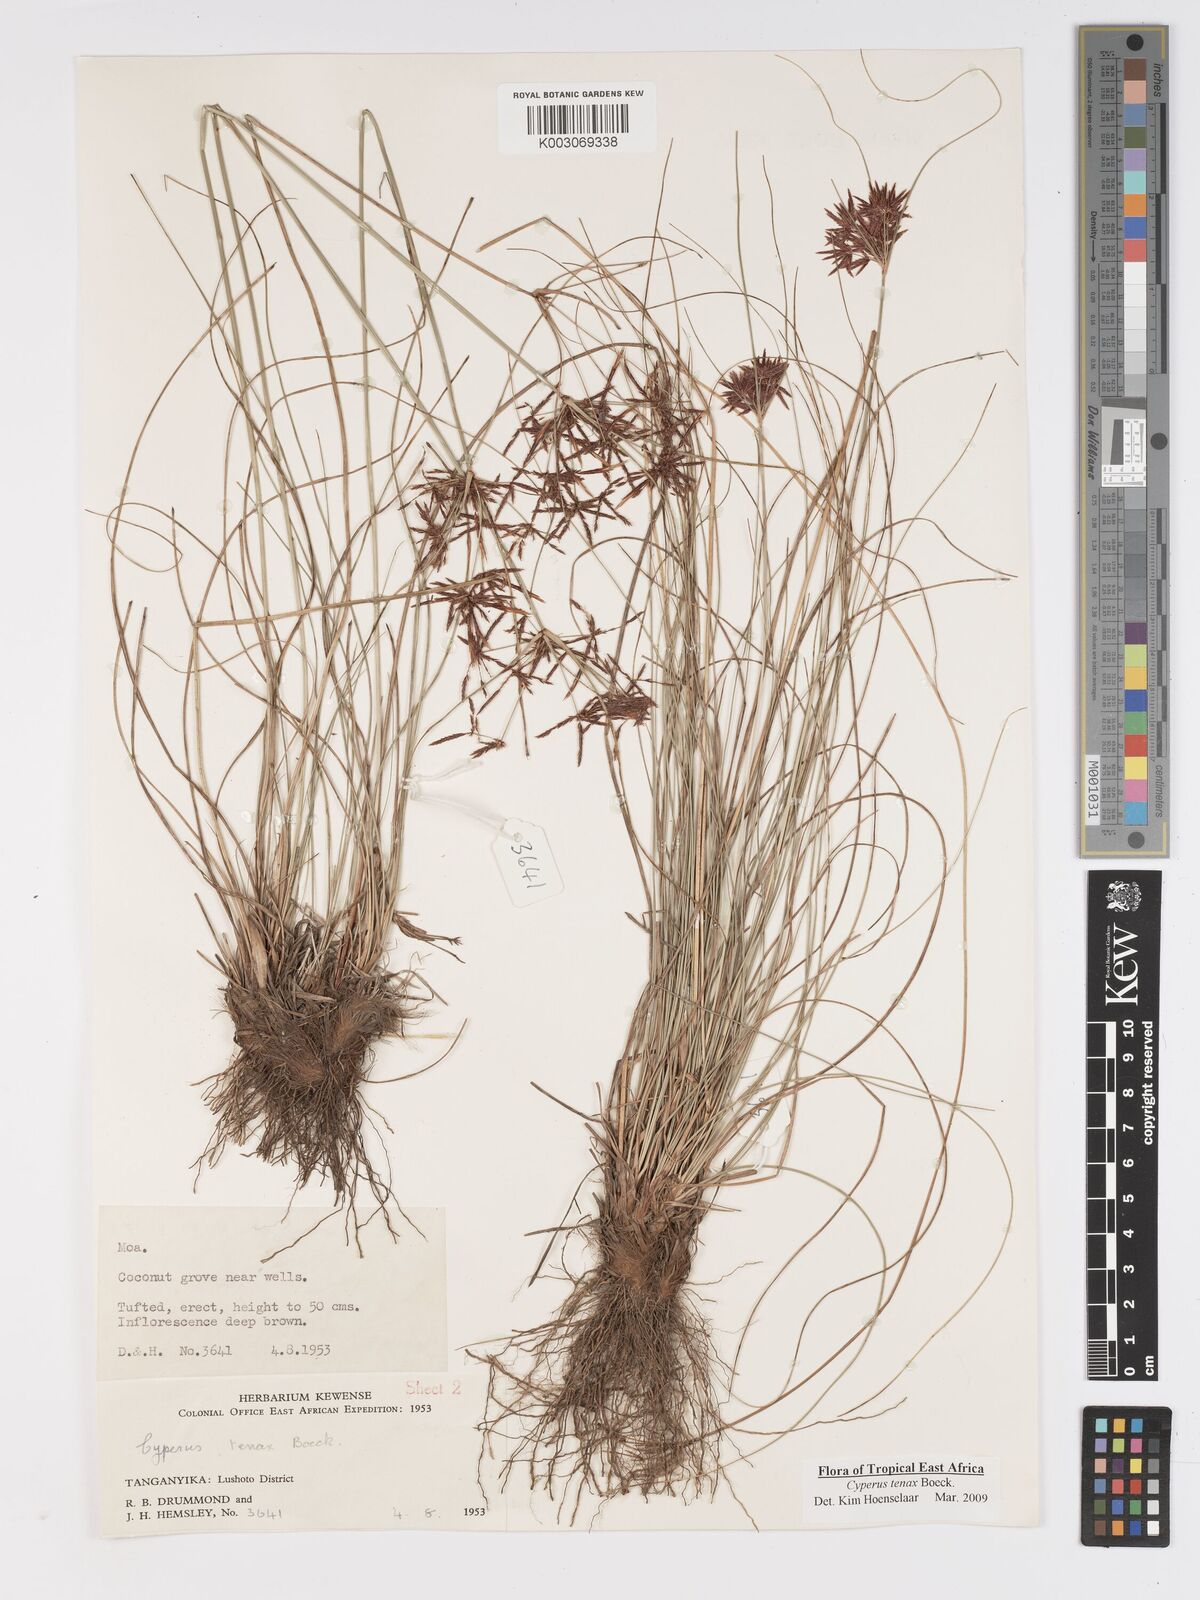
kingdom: Plantae
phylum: Tracheophyta
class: Liliopsida
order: Poales
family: Cyperaceae
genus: Cyperus
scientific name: Cyperus tenax
